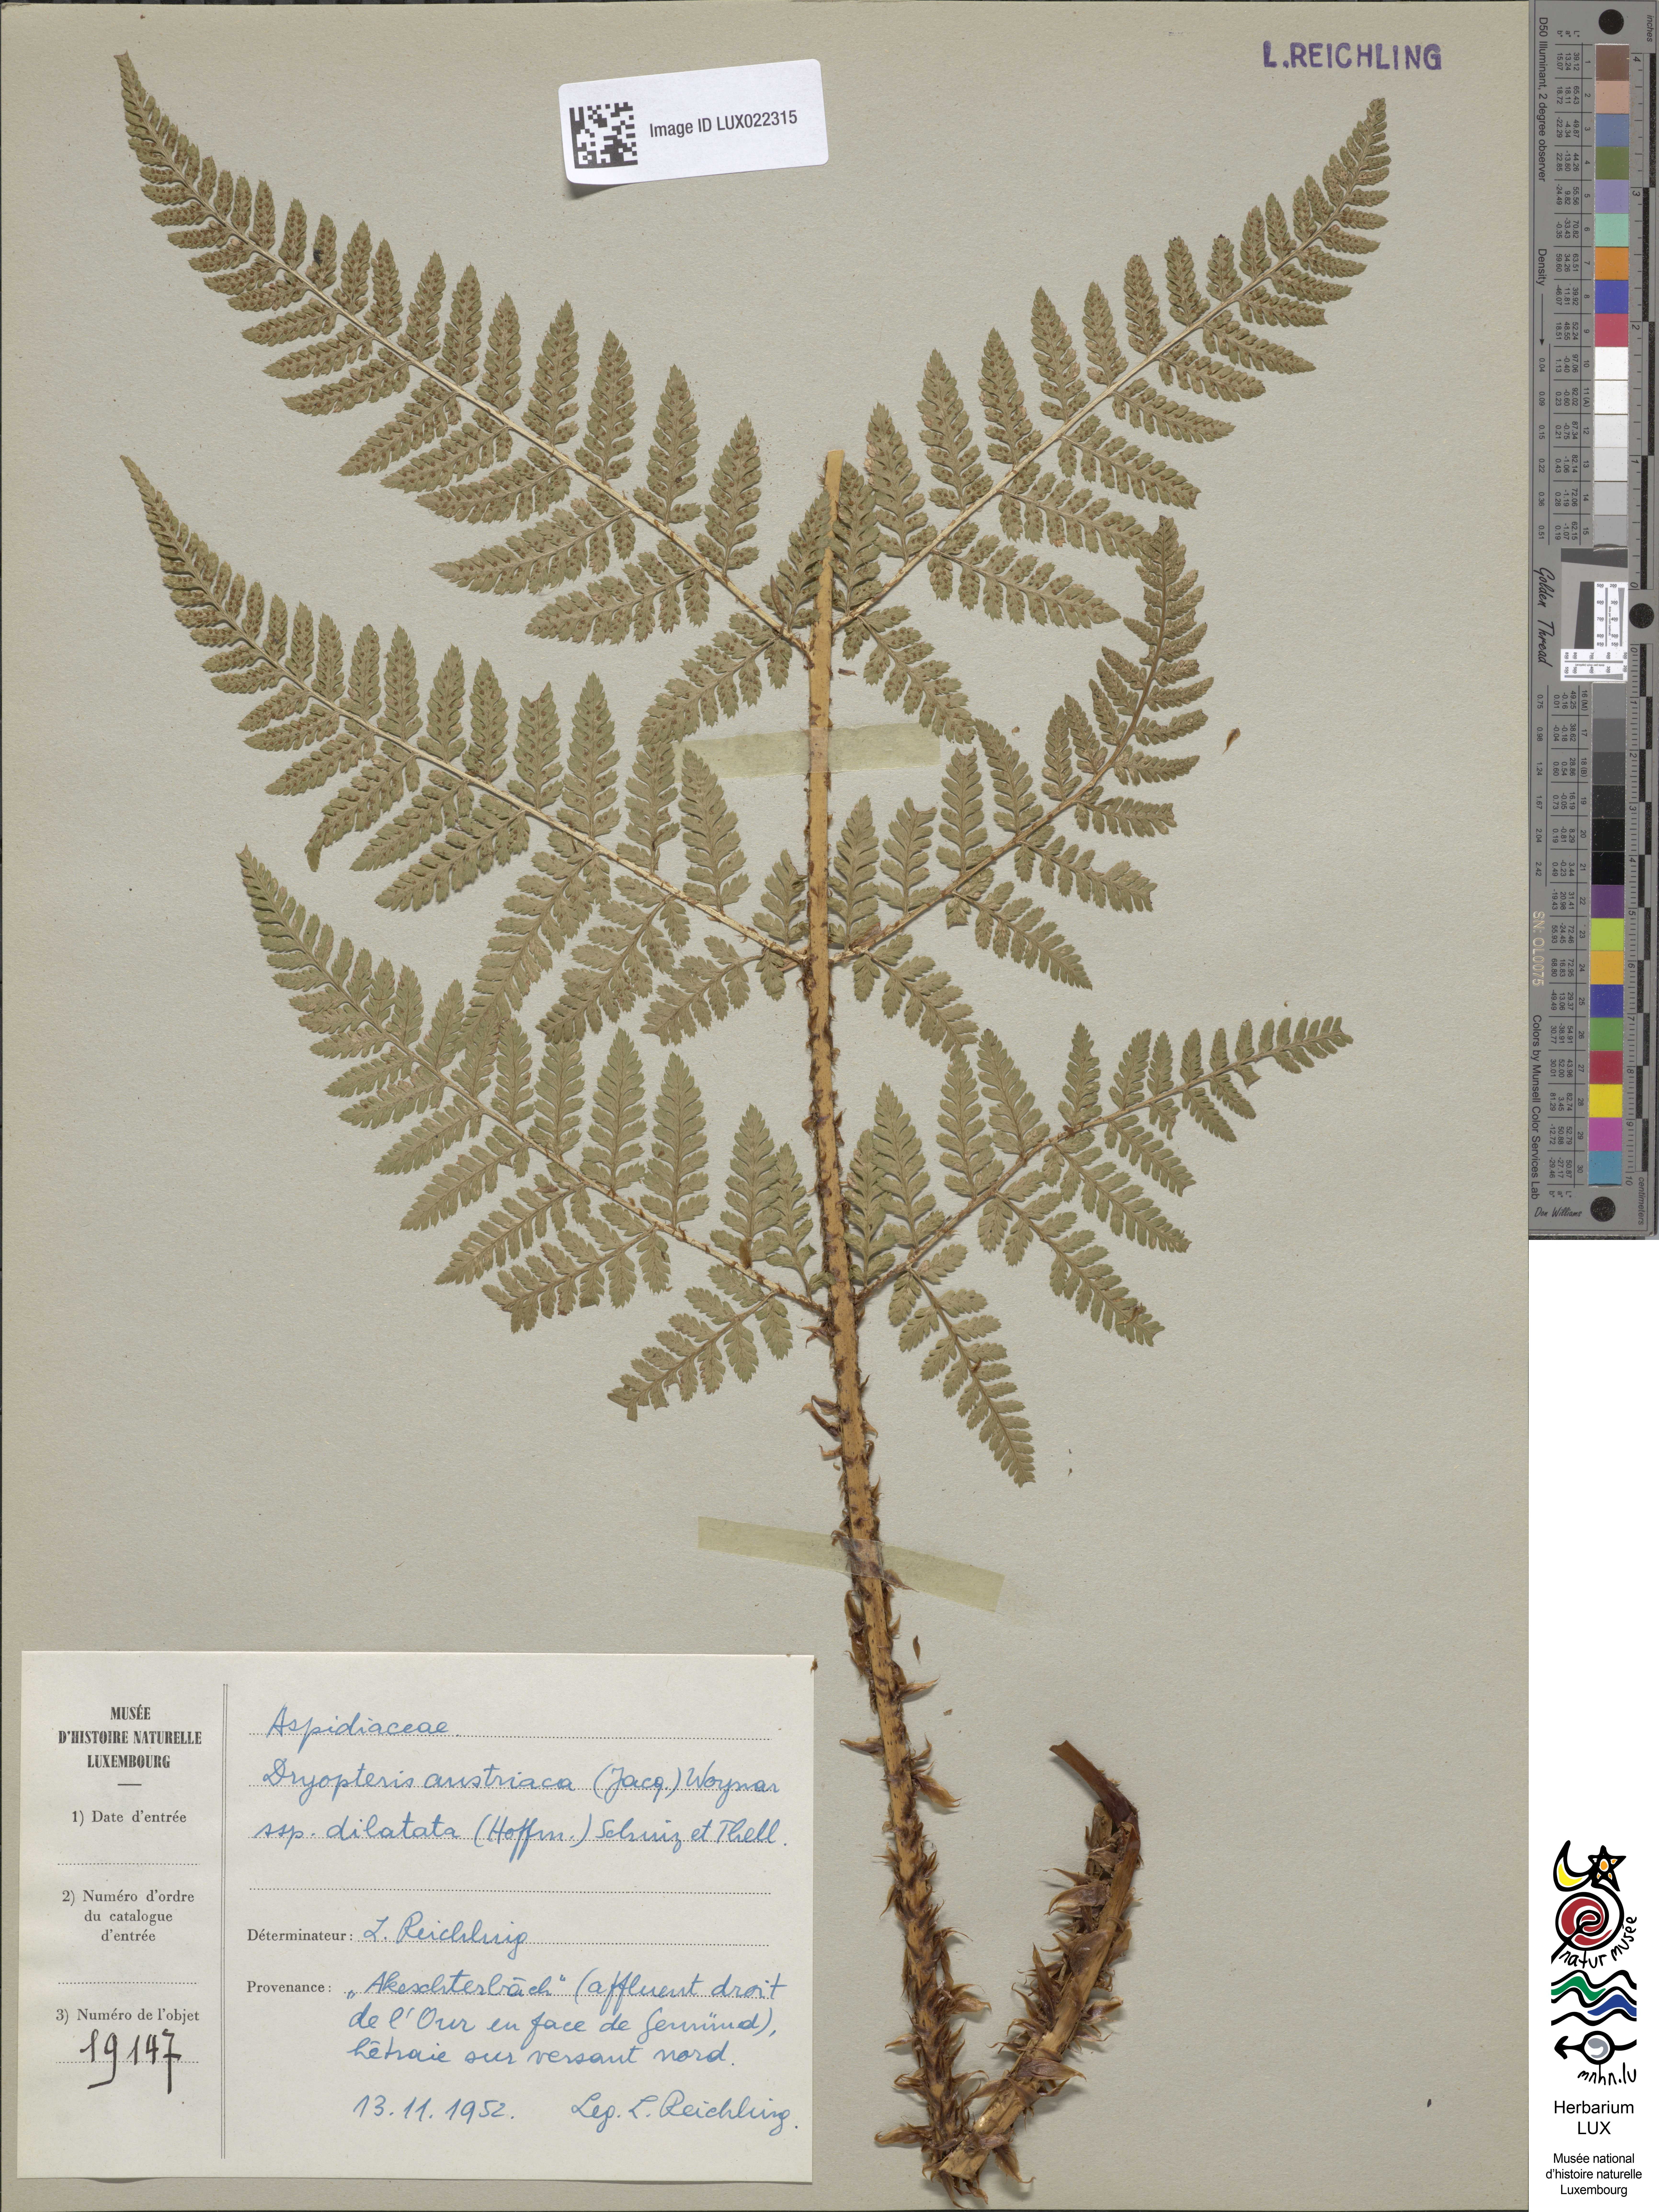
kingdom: Plantae
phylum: Tracheophyta
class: Polypodiopsida
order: Polypodiales
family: Dryopteridaceae
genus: Dryopteris
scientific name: Dryopteris dilatata
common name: Broad buckler-fern
